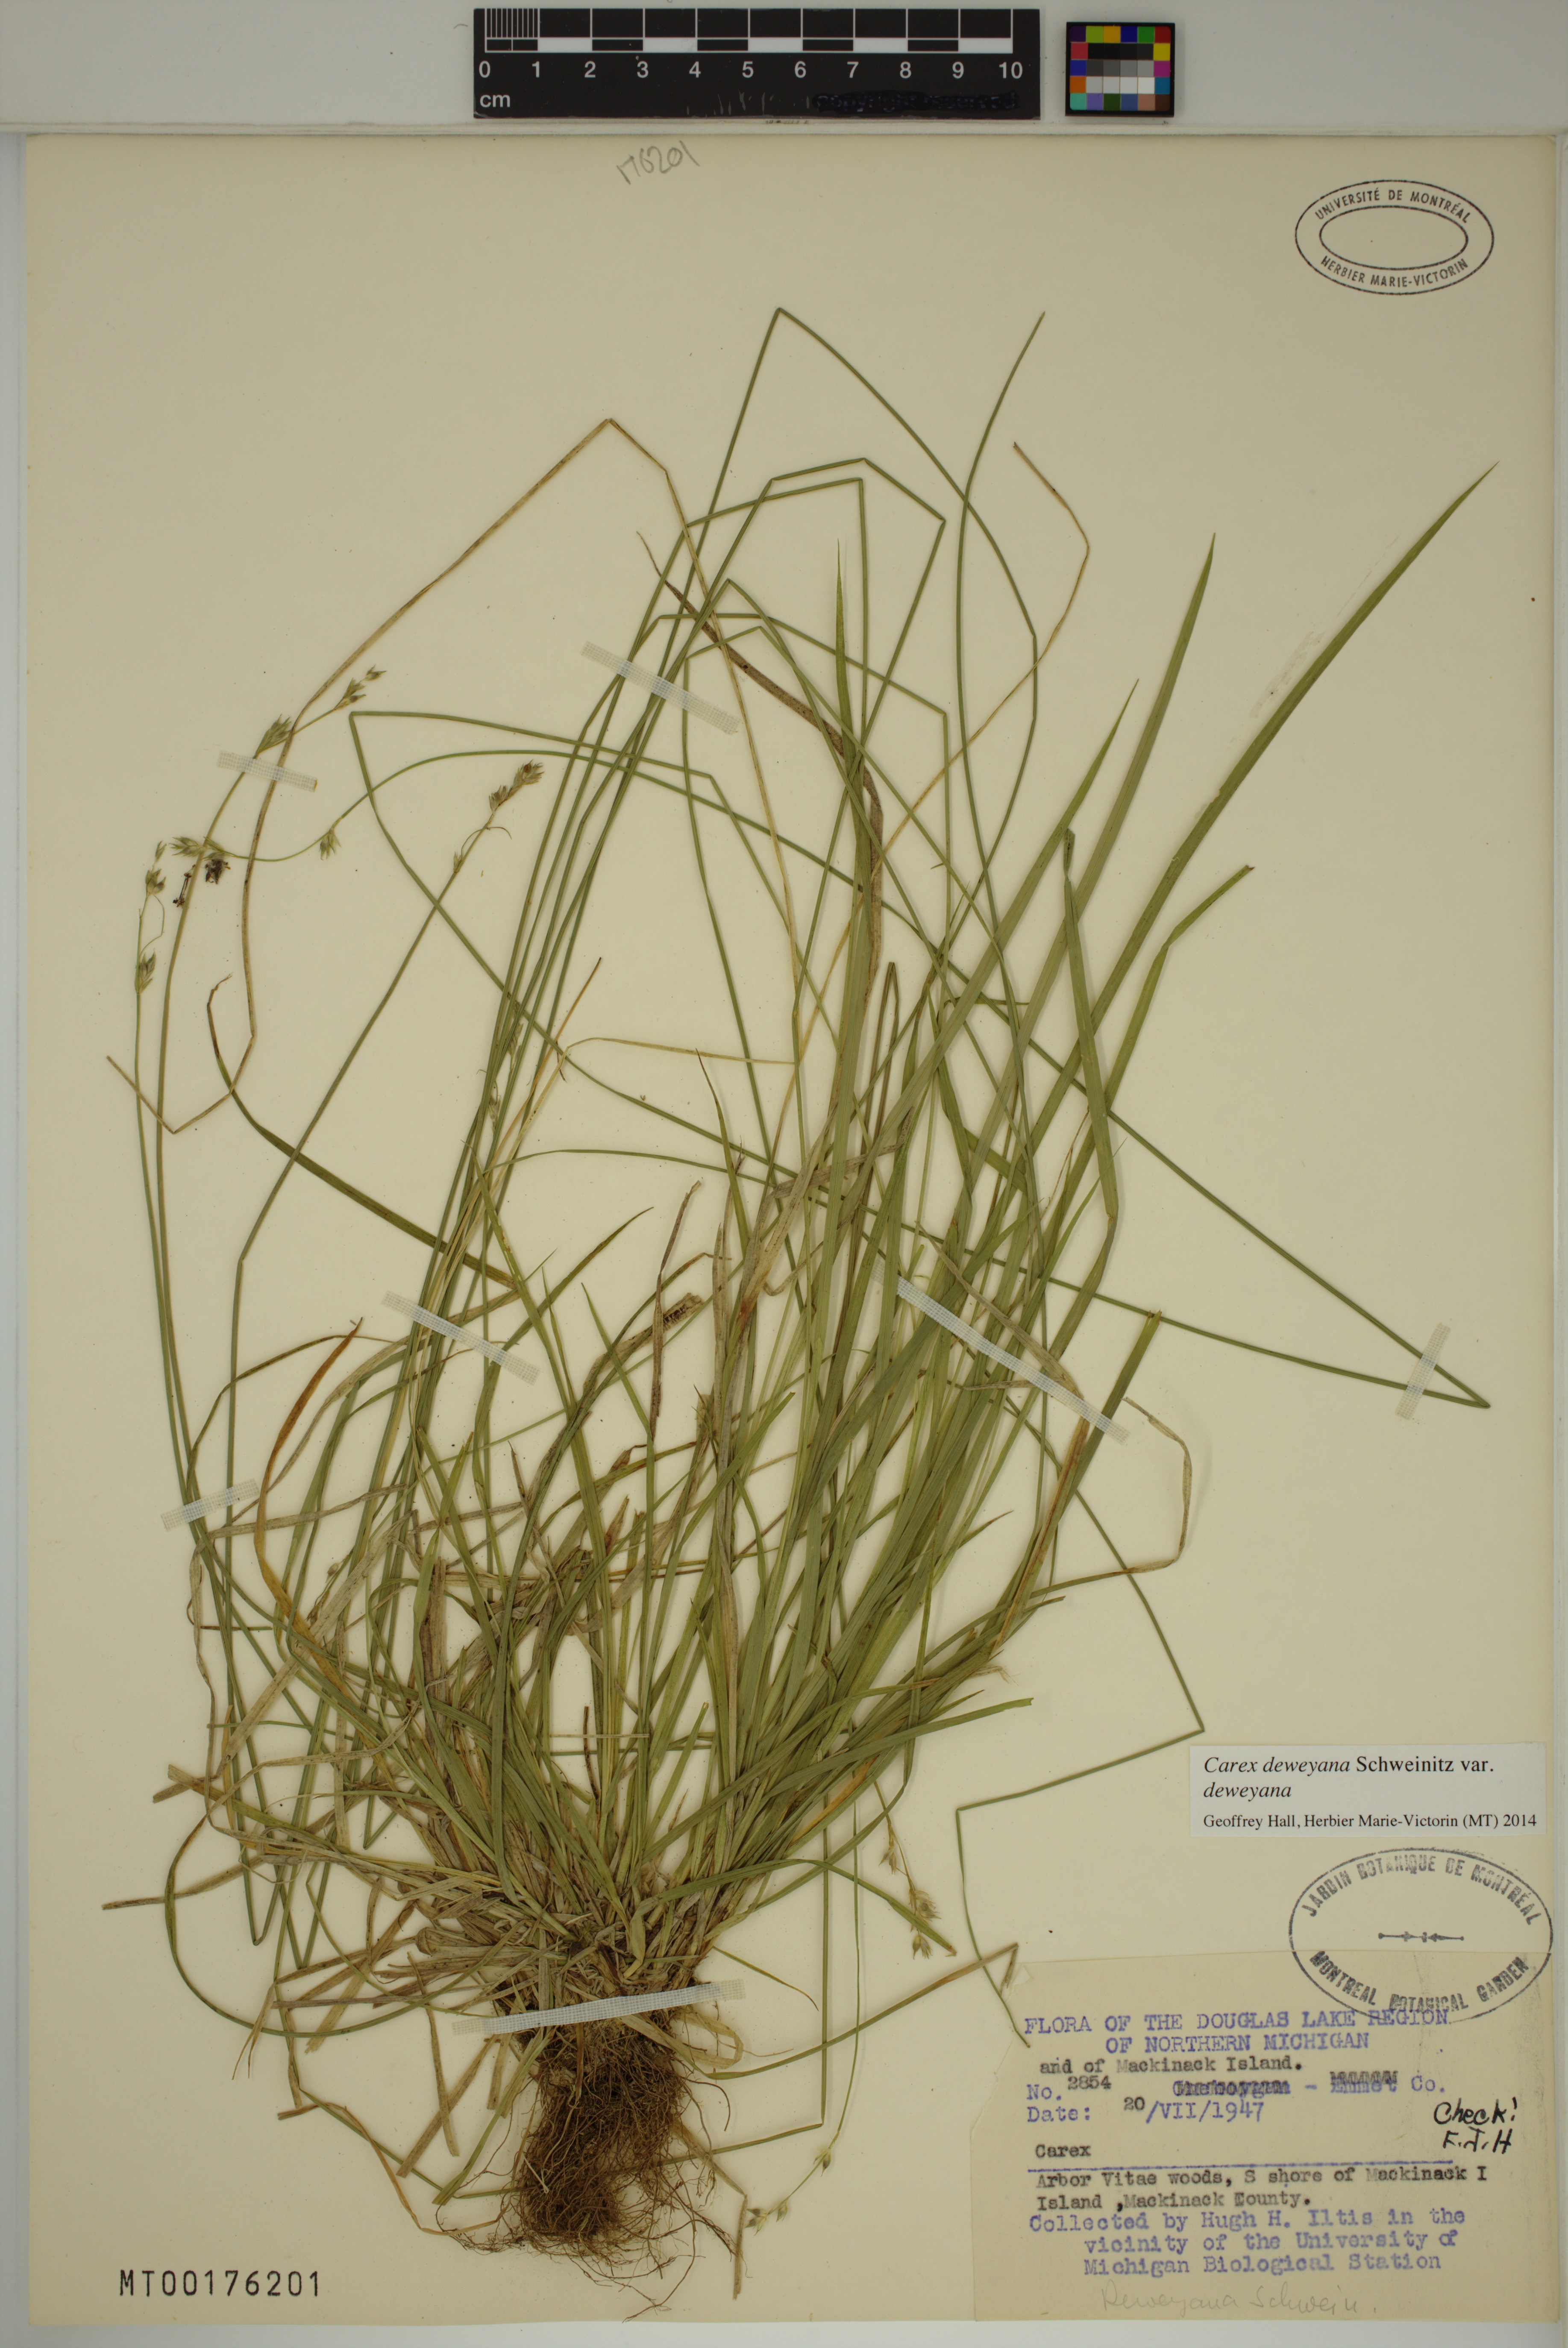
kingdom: Plantae
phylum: Tracheophyta
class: Liliopsida
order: Poales
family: Cyperaceae
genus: Carex
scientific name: Carex deweyana
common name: Dewey's sedge
